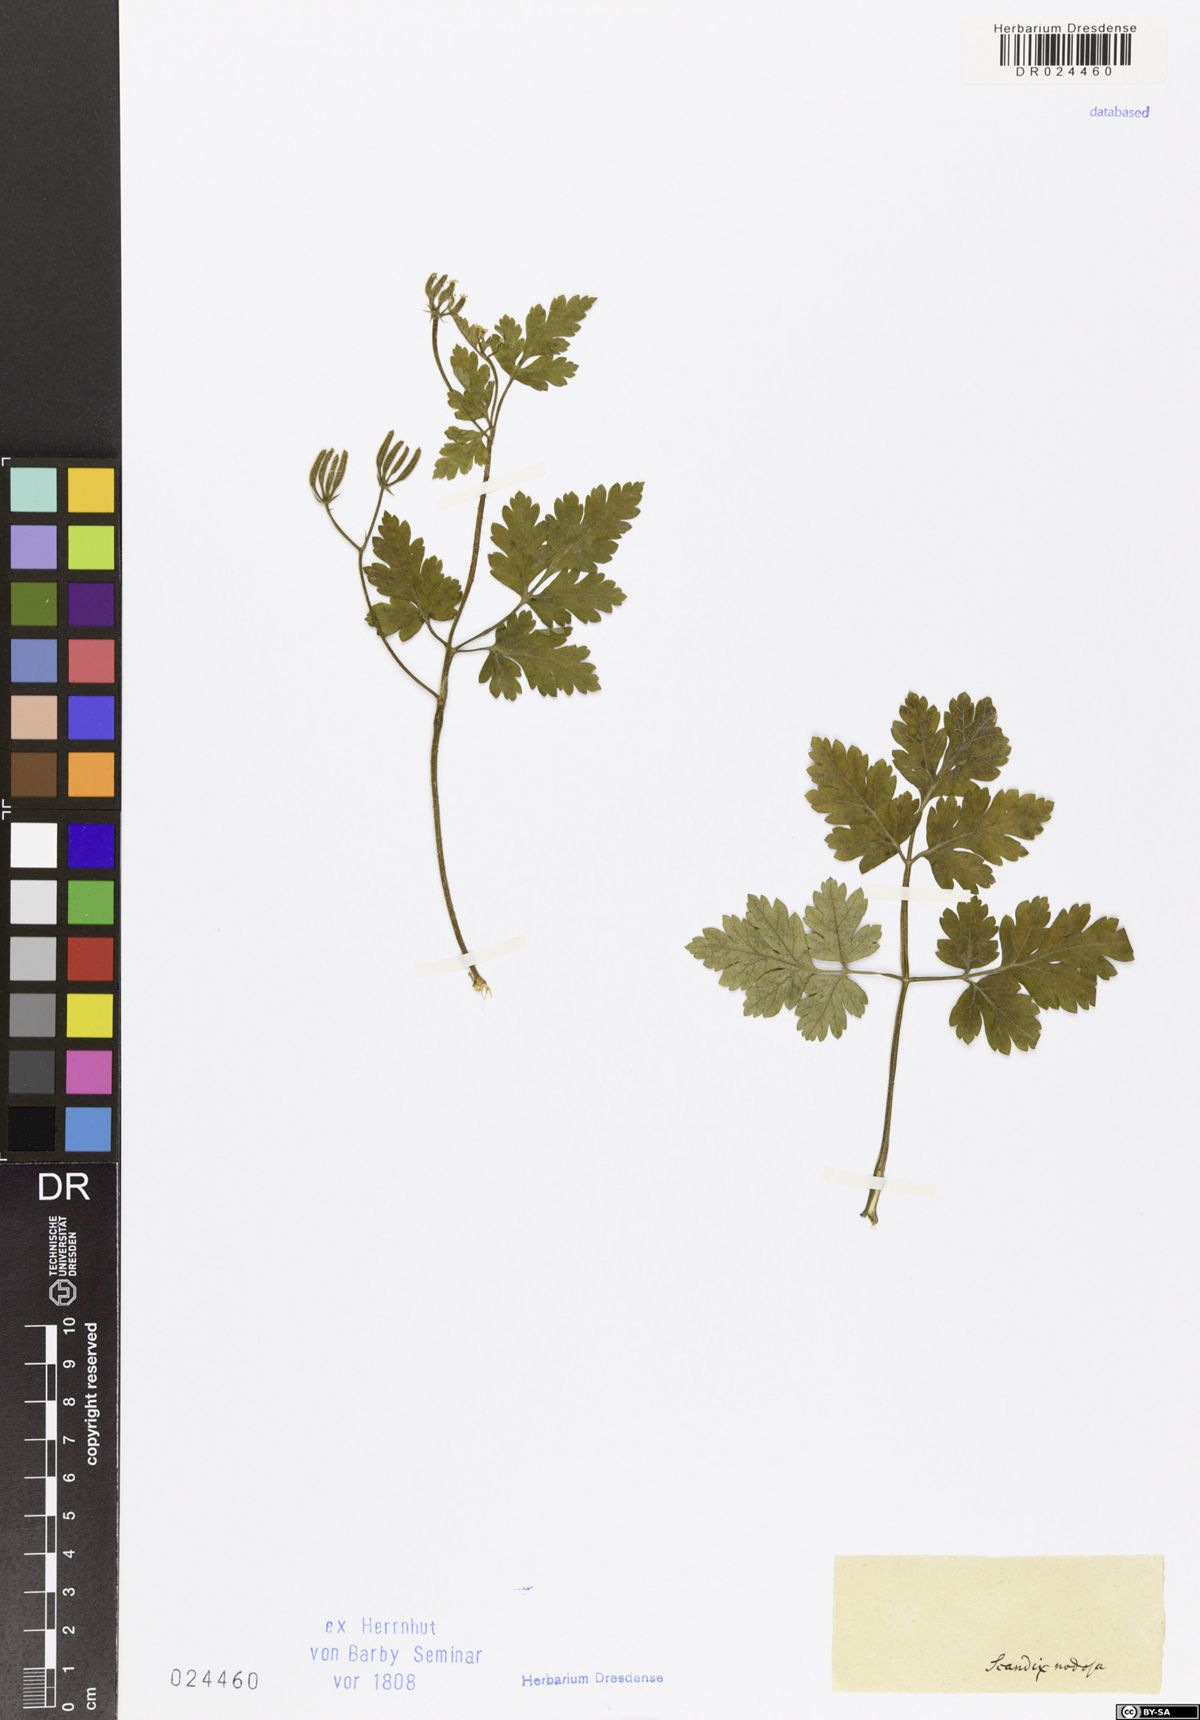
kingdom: Plantae
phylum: Tracheophyta
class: Magnoliopsida
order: Apiales
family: Apiaceae
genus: Chaerophyllum
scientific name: Chaerophyllum nodosum
